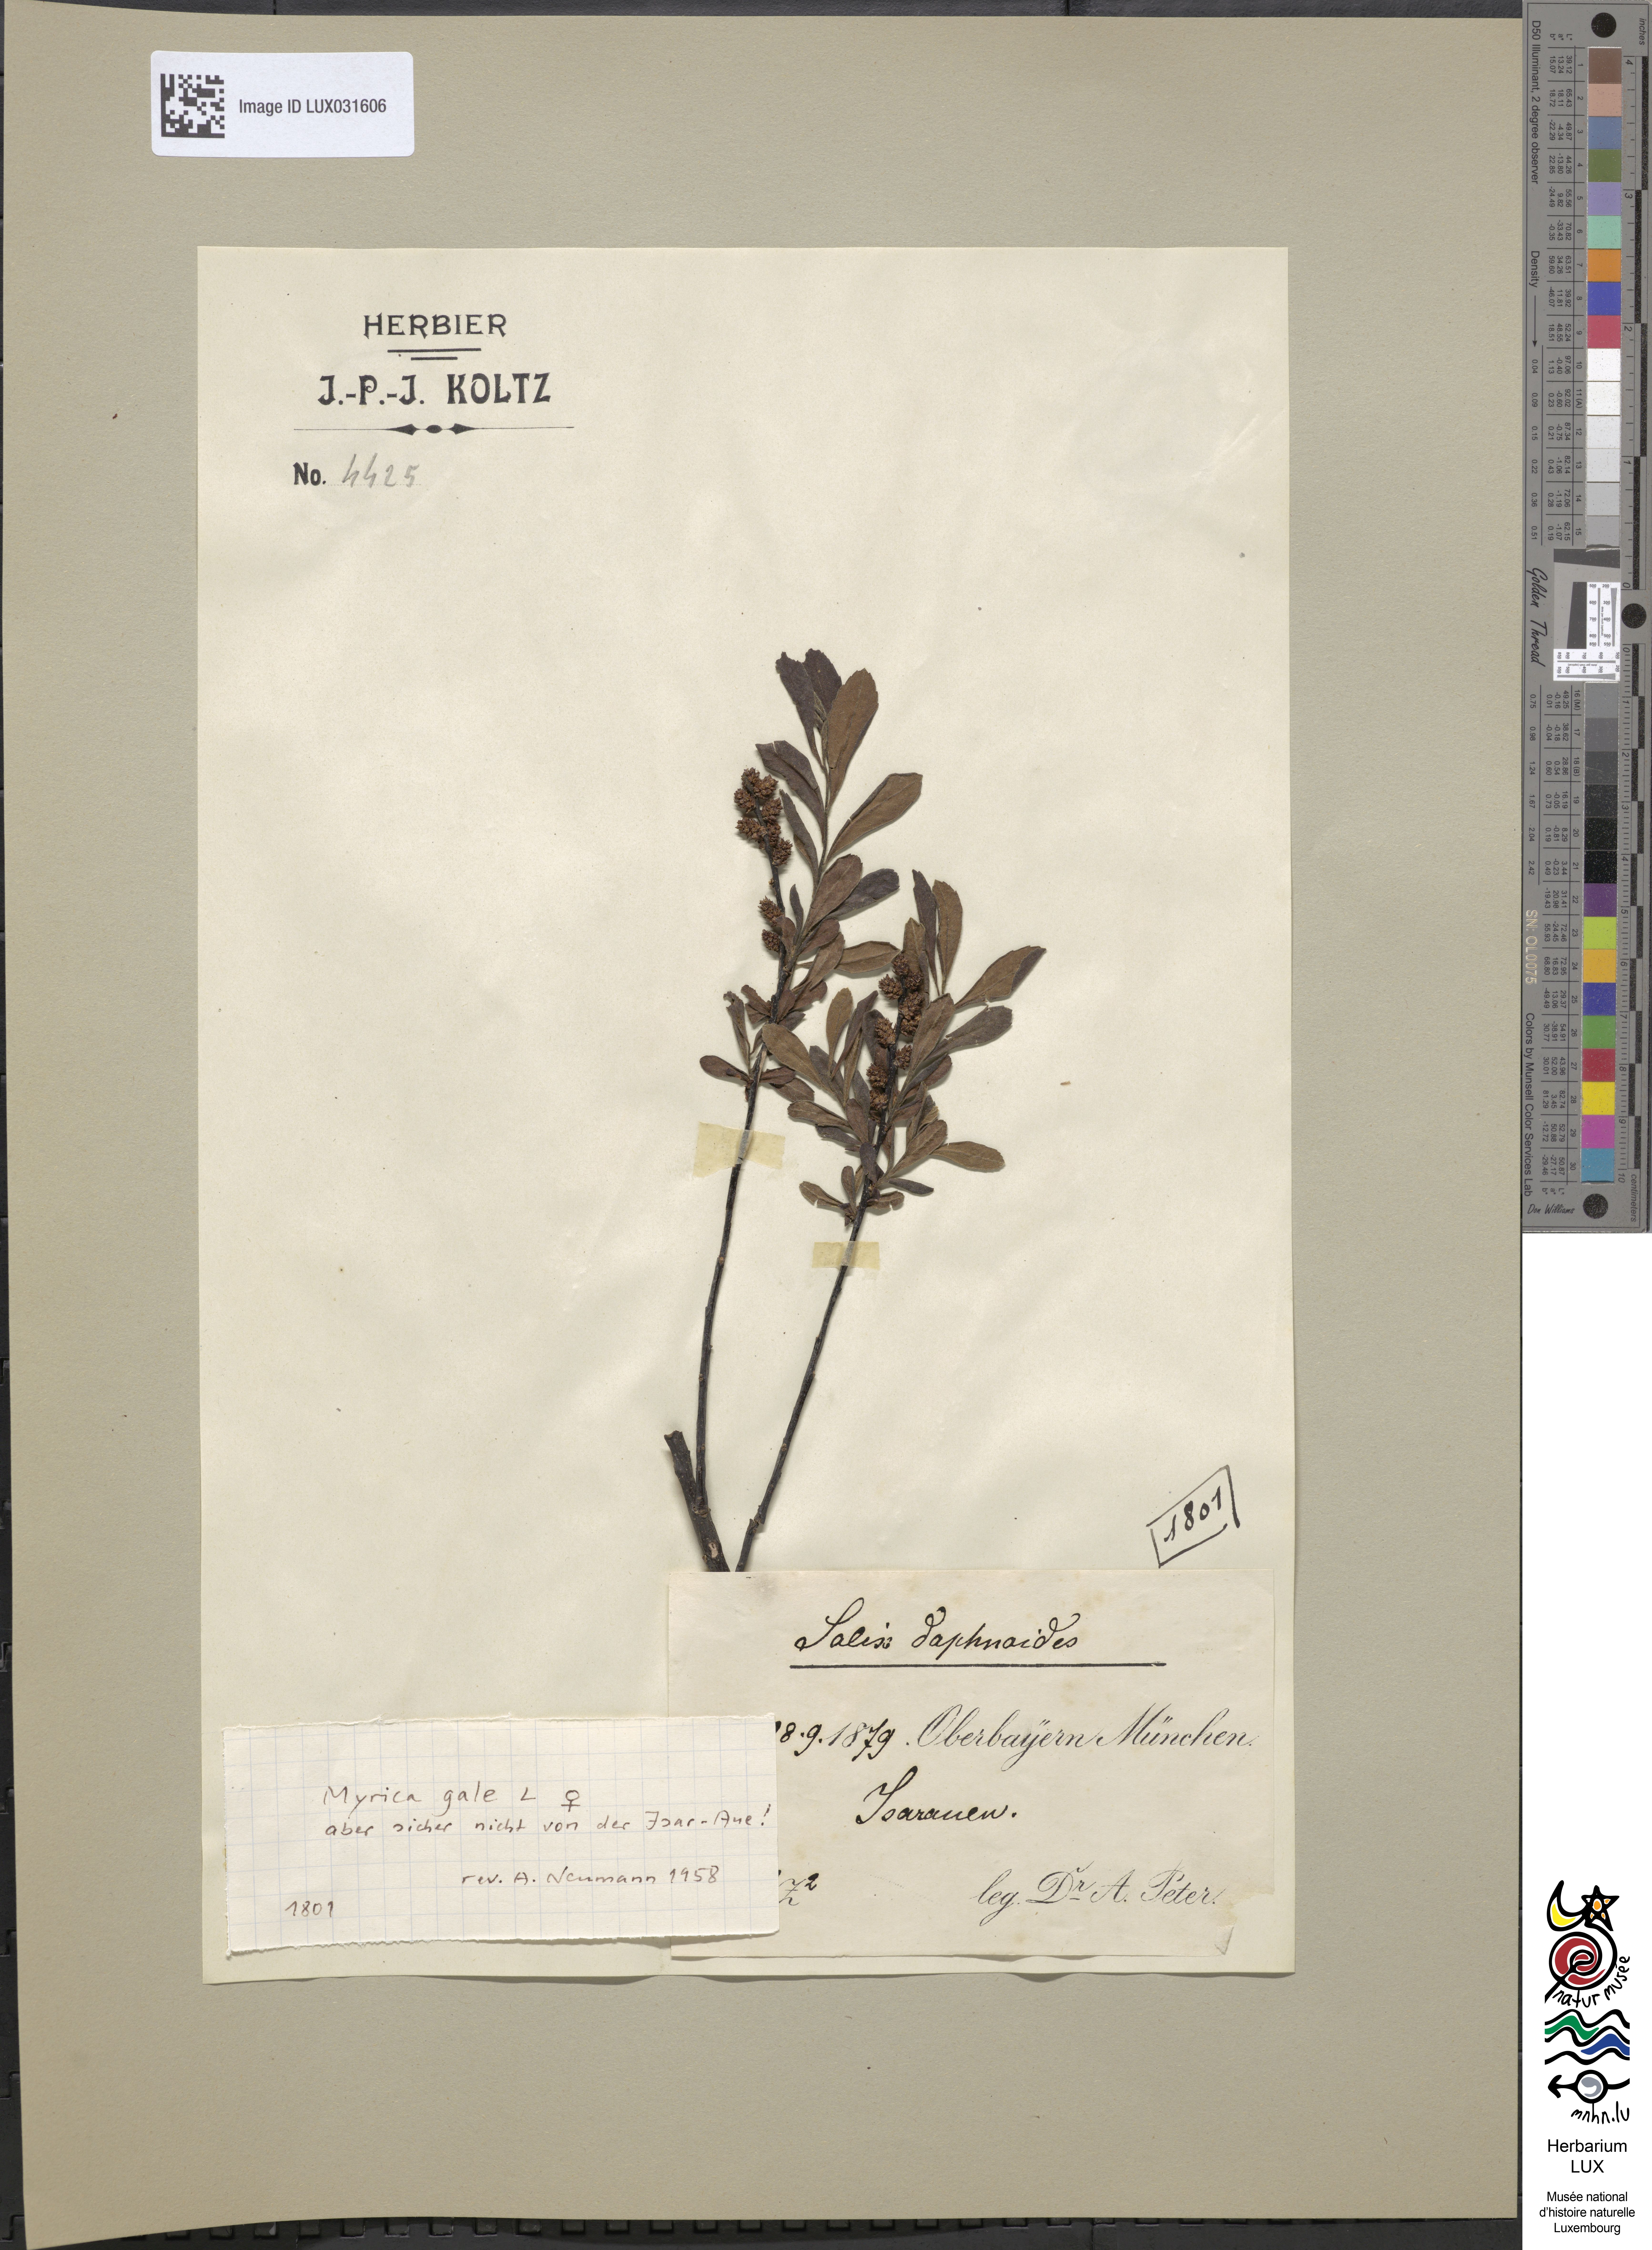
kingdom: Plantae
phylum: Tracheophyta
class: Magnoliopsida
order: Fagales
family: Myricaceae
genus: Myrica
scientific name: Myrica gale
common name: Sweet gale
